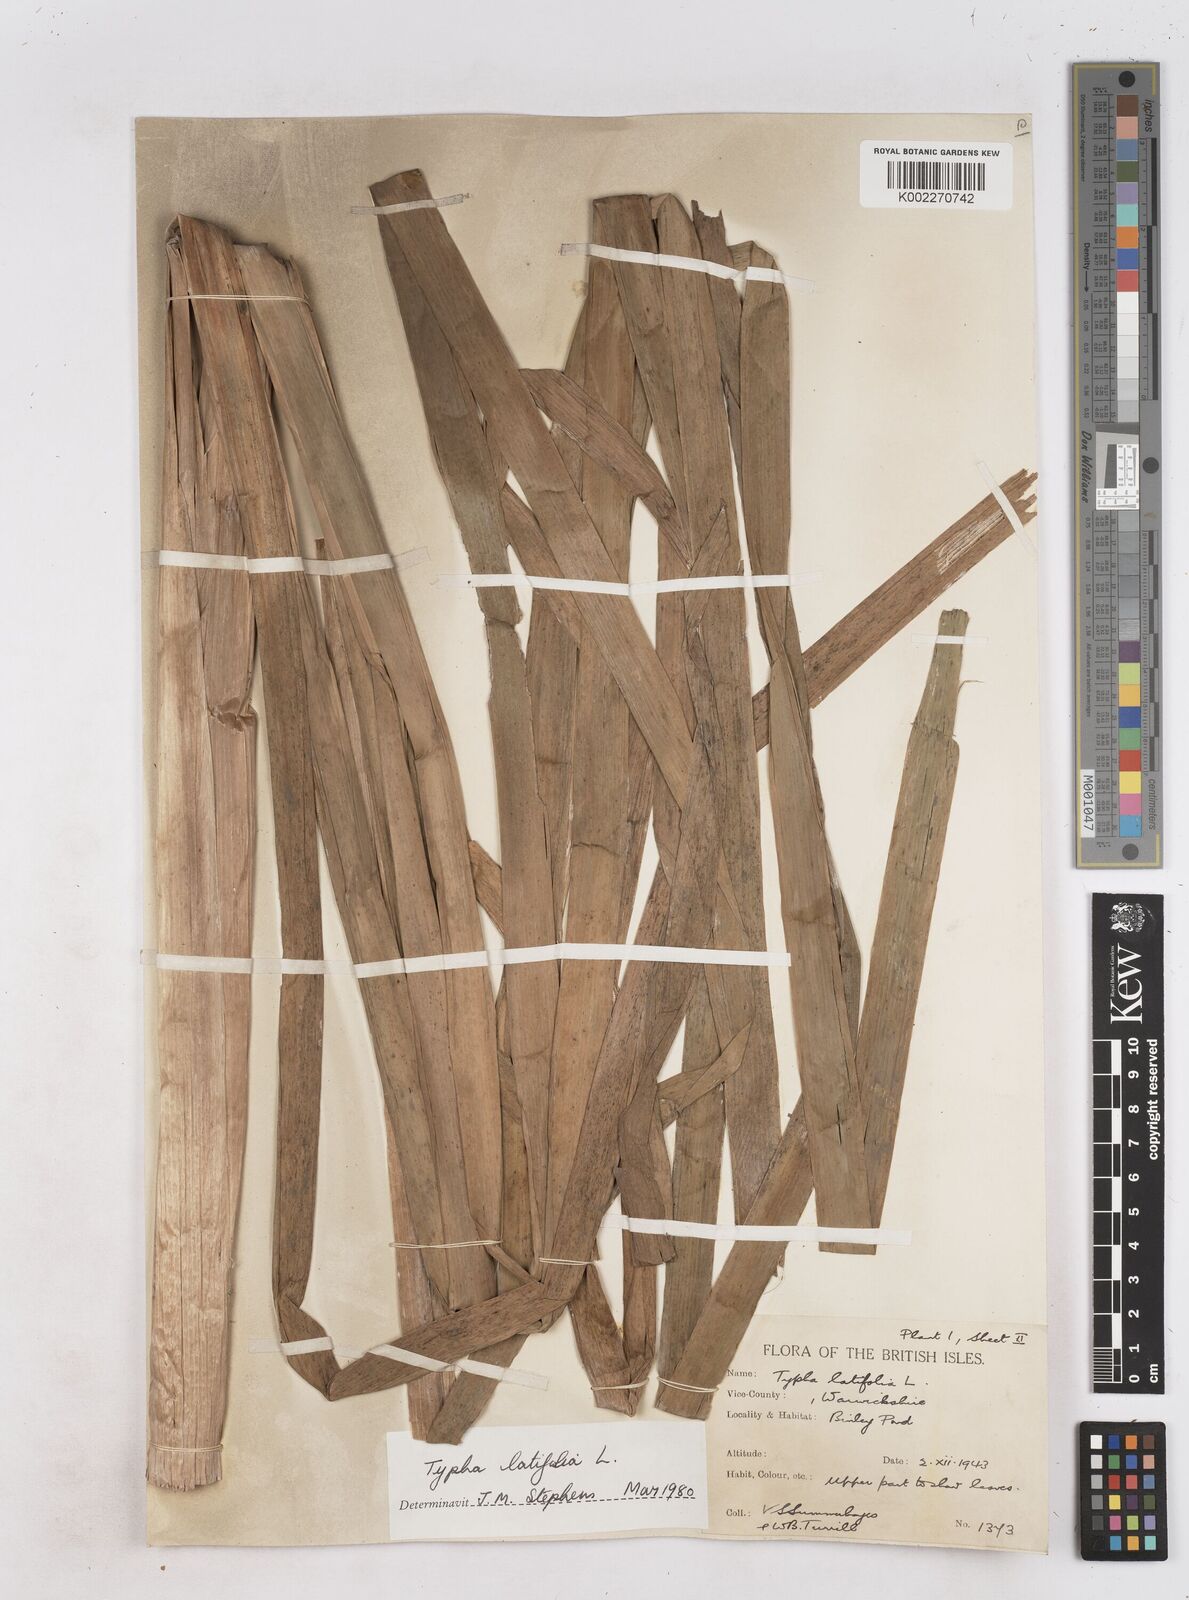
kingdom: Plantae
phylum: Tracheophyta
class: Liliopsida
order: Poales
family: Typhaceae
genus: Typha
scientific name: Typha latifolia
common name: Broadleaf cattail
